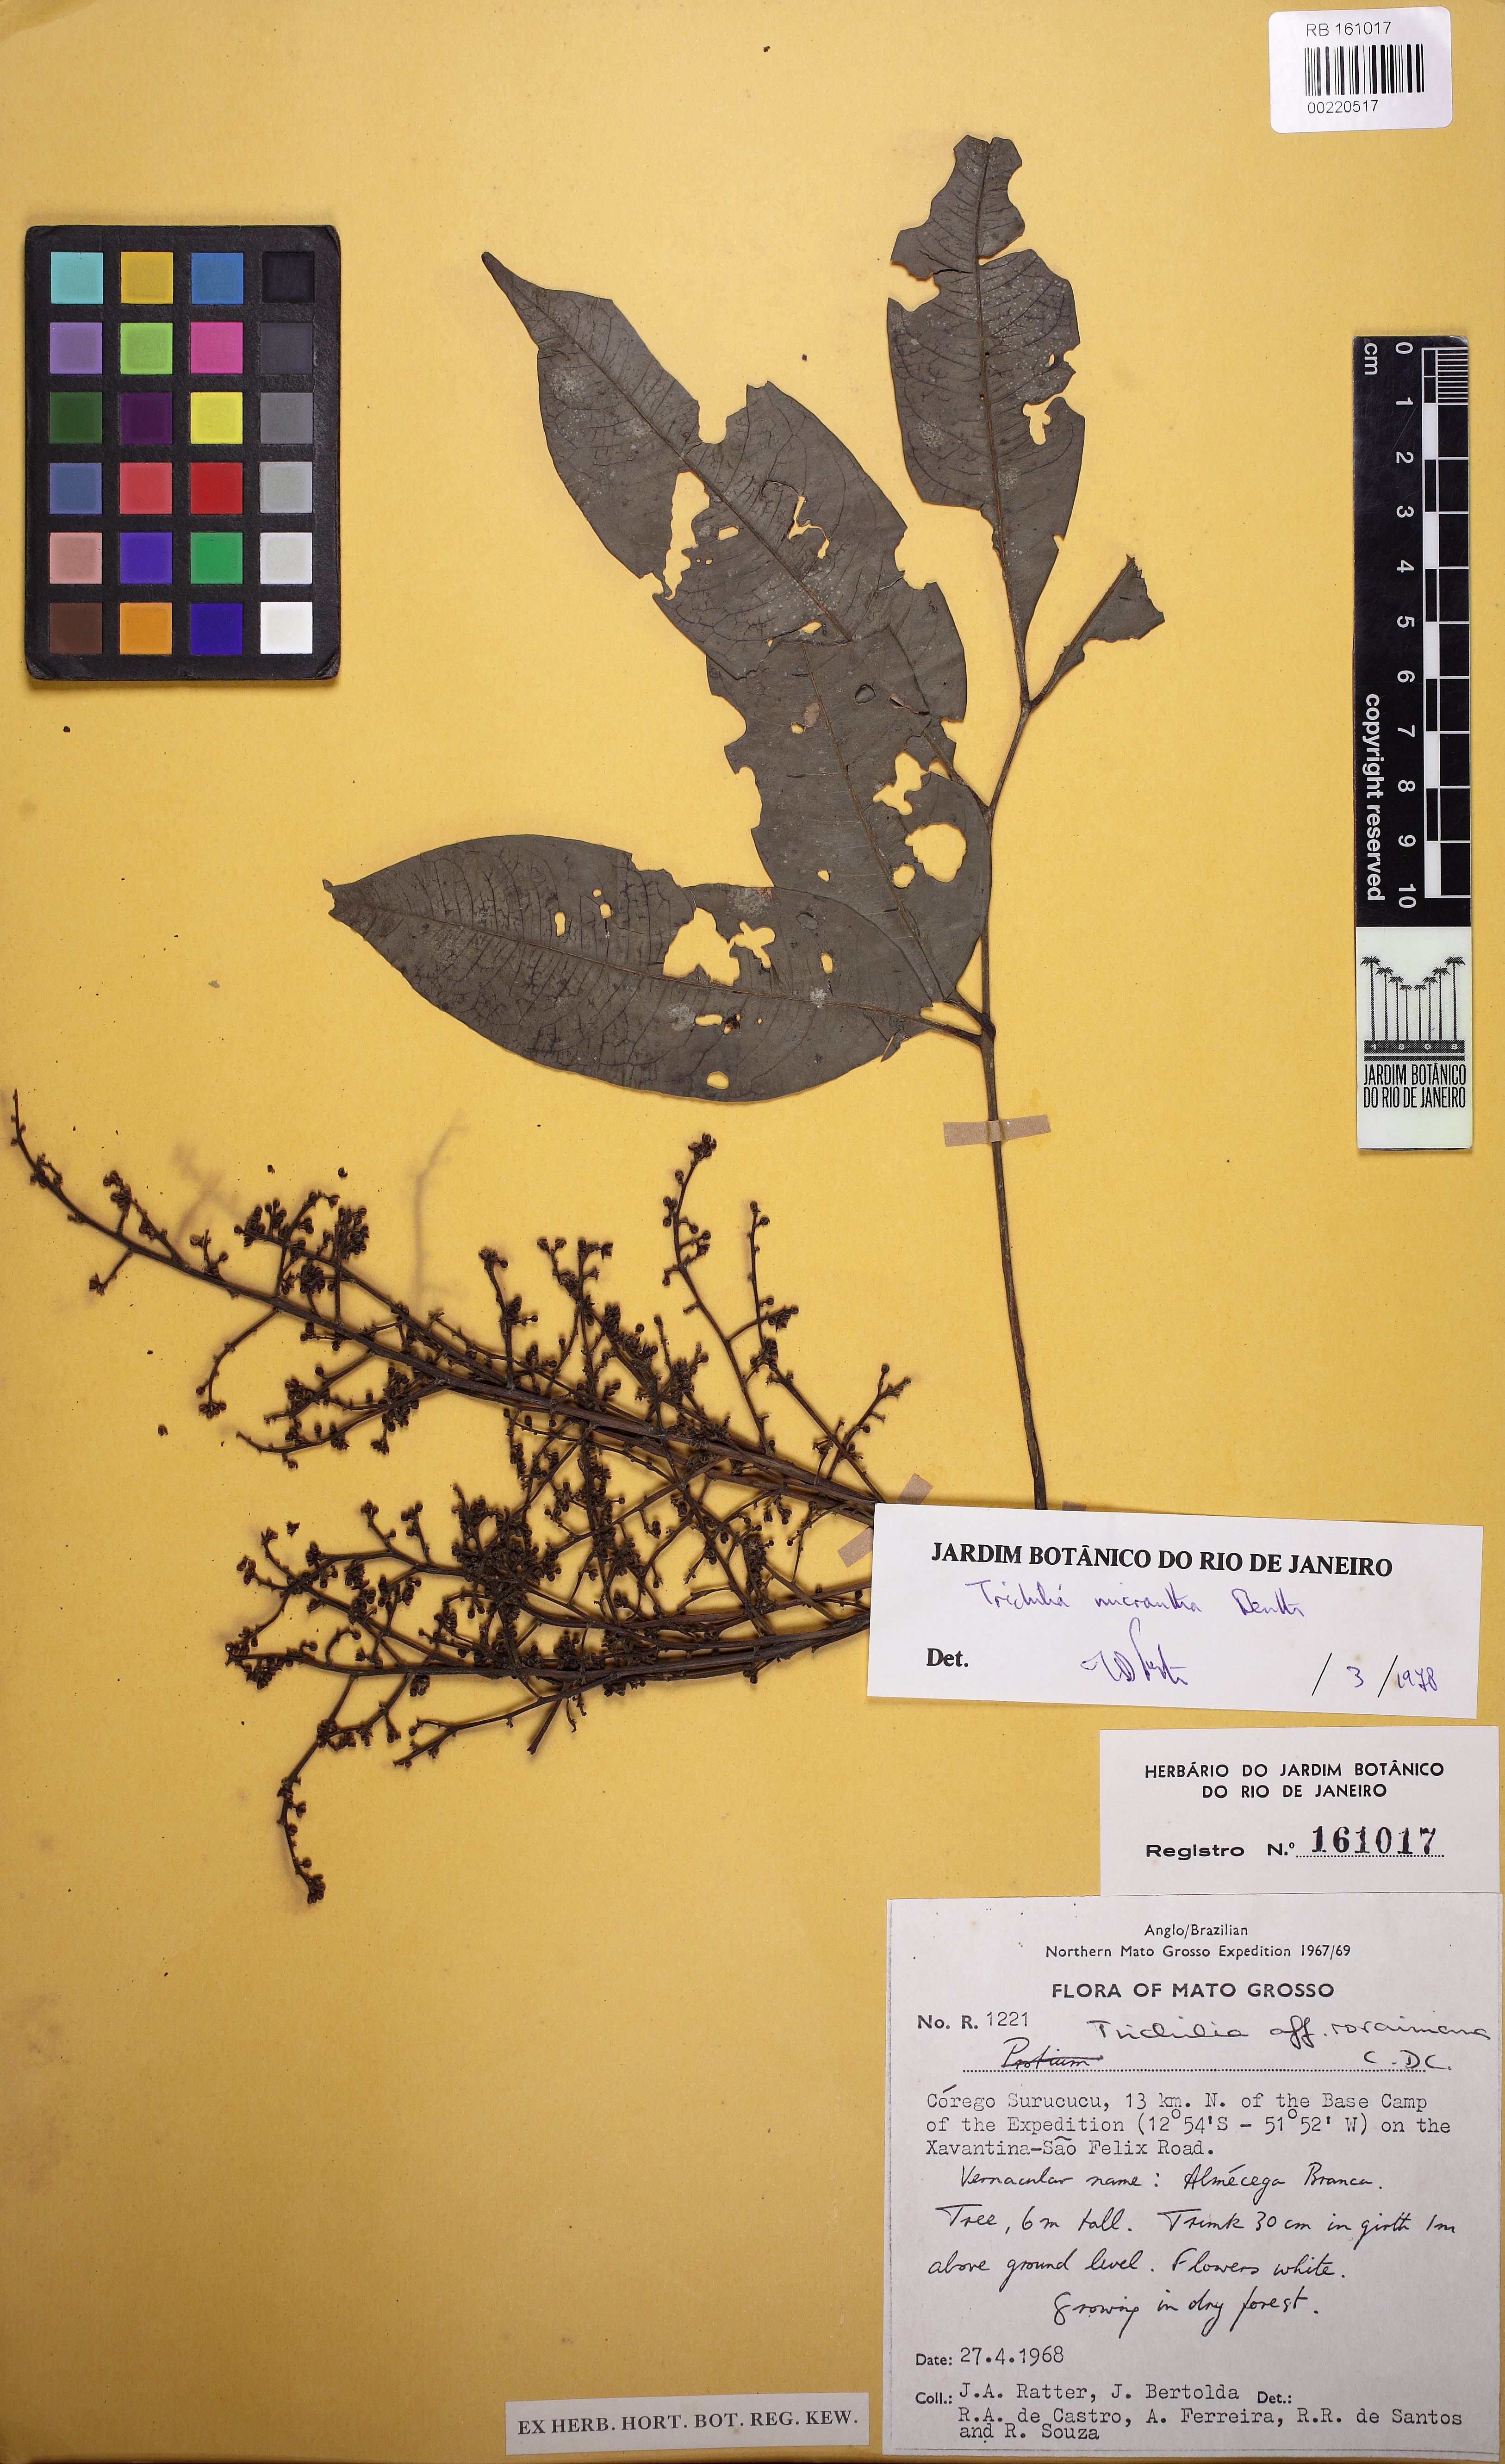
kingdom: Plantae
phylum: Tracheophyta
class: Magnoliopsida
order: Sapindales
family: Meliaceae
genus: Trichilia
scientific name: Trichilia micrantha
